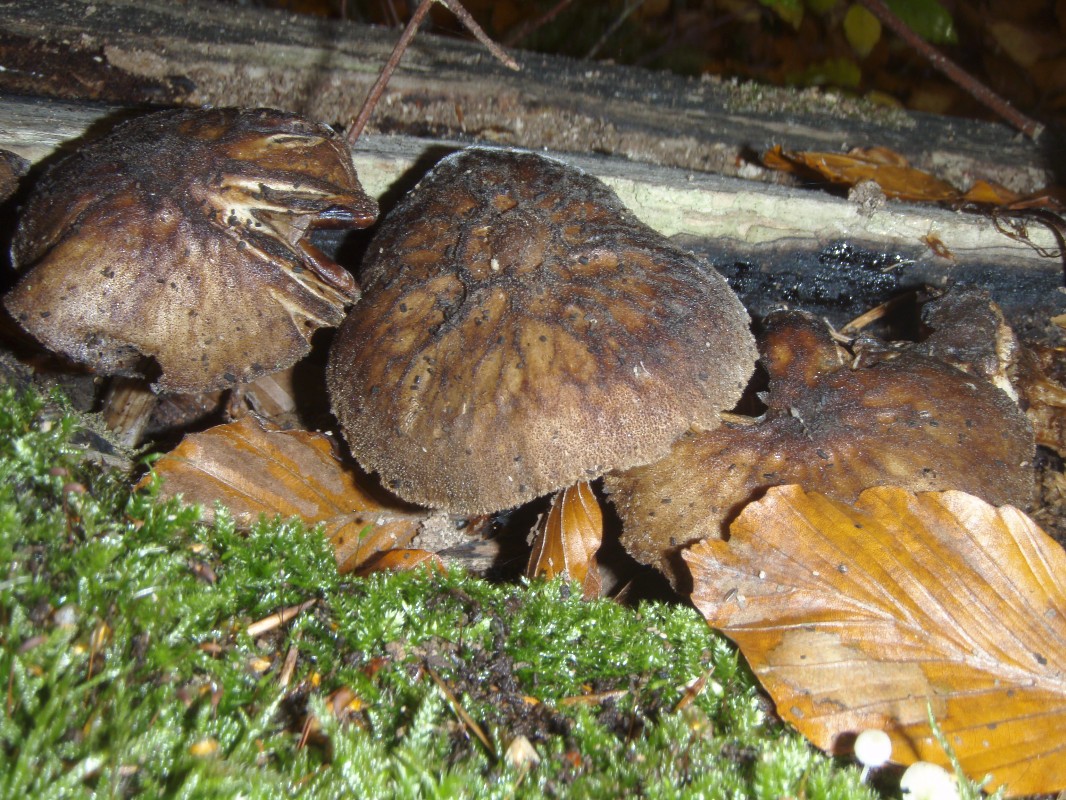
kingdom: Fungi
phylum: Basidiomycota
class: Agaricomycetes
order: Agaricales
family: Pluteaceae
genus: Pluteus
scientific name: Pluteus umbrosus
